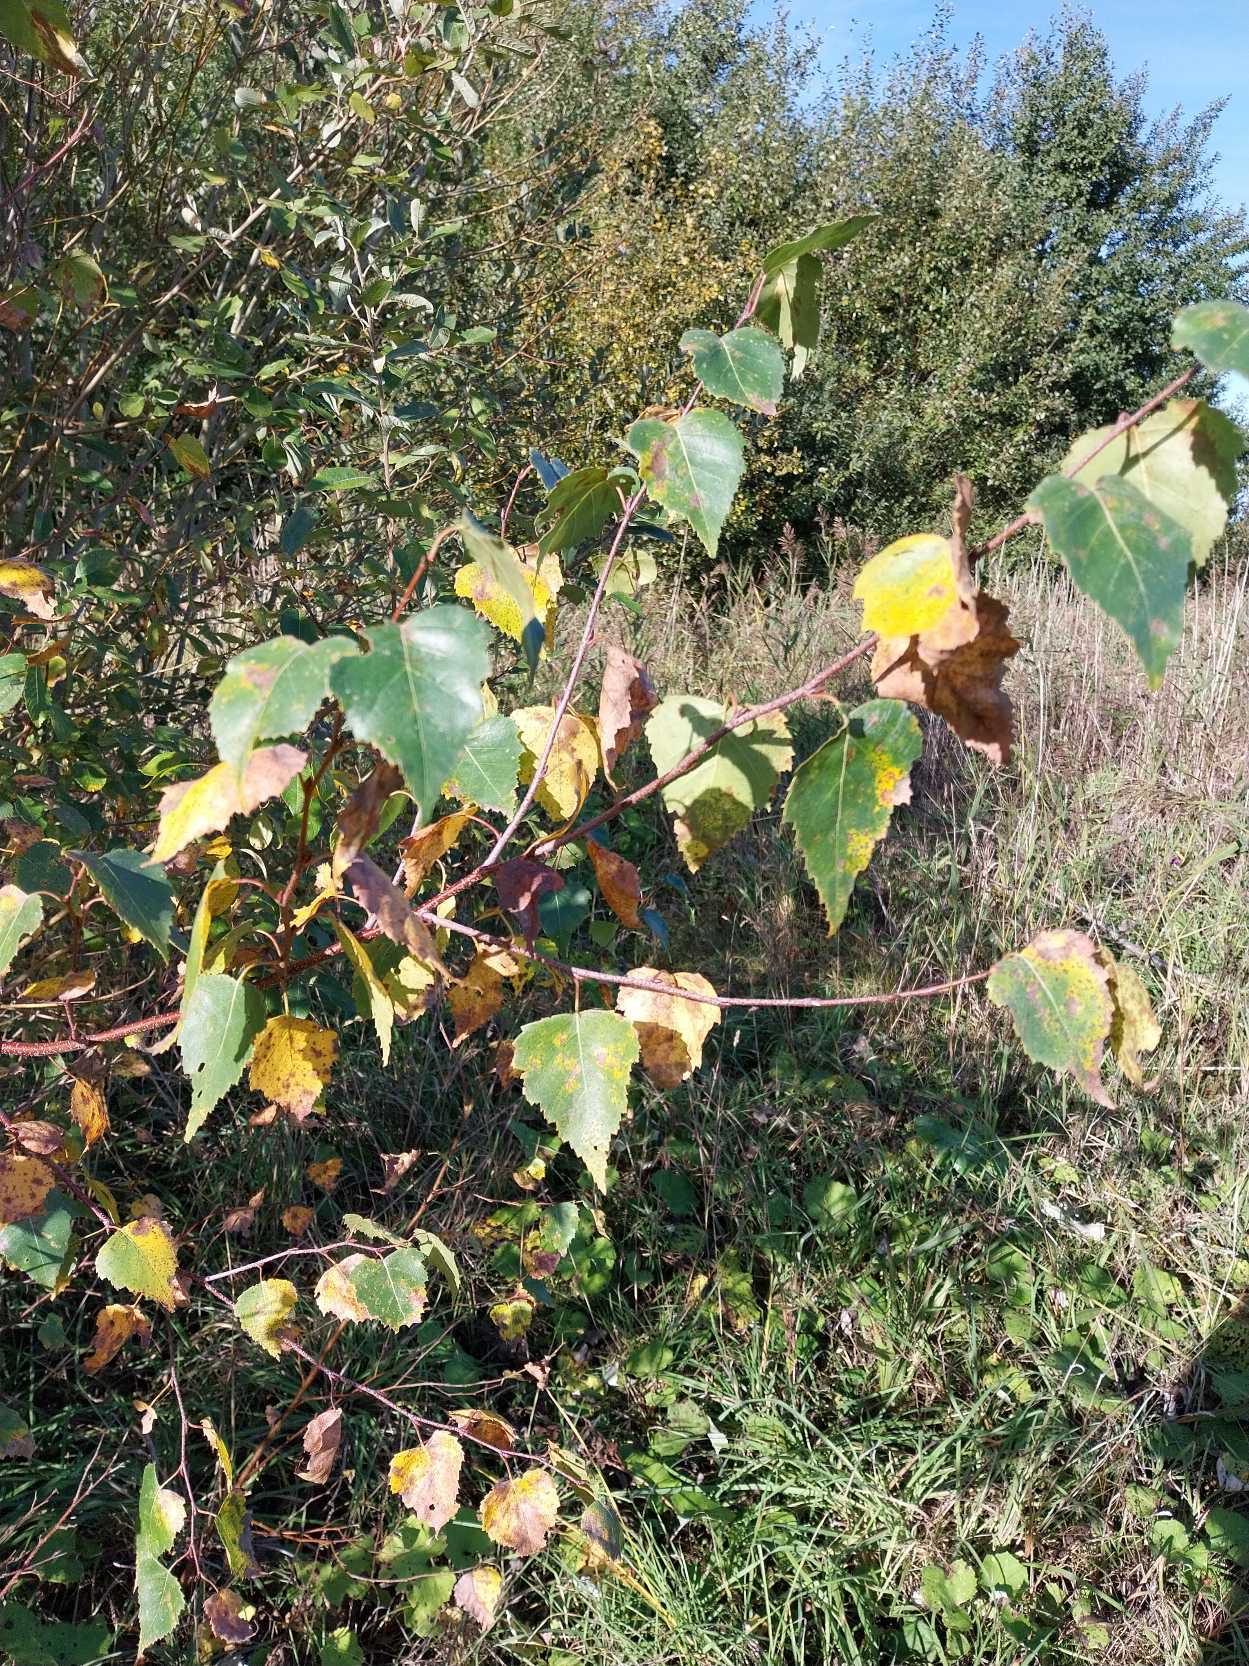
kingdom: Plantae
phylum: Tracheophyta
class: Magnoliopsida
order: Fagales
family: Betulaceae
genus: Betula
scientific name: Betula pendula
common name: Vorte-birk
